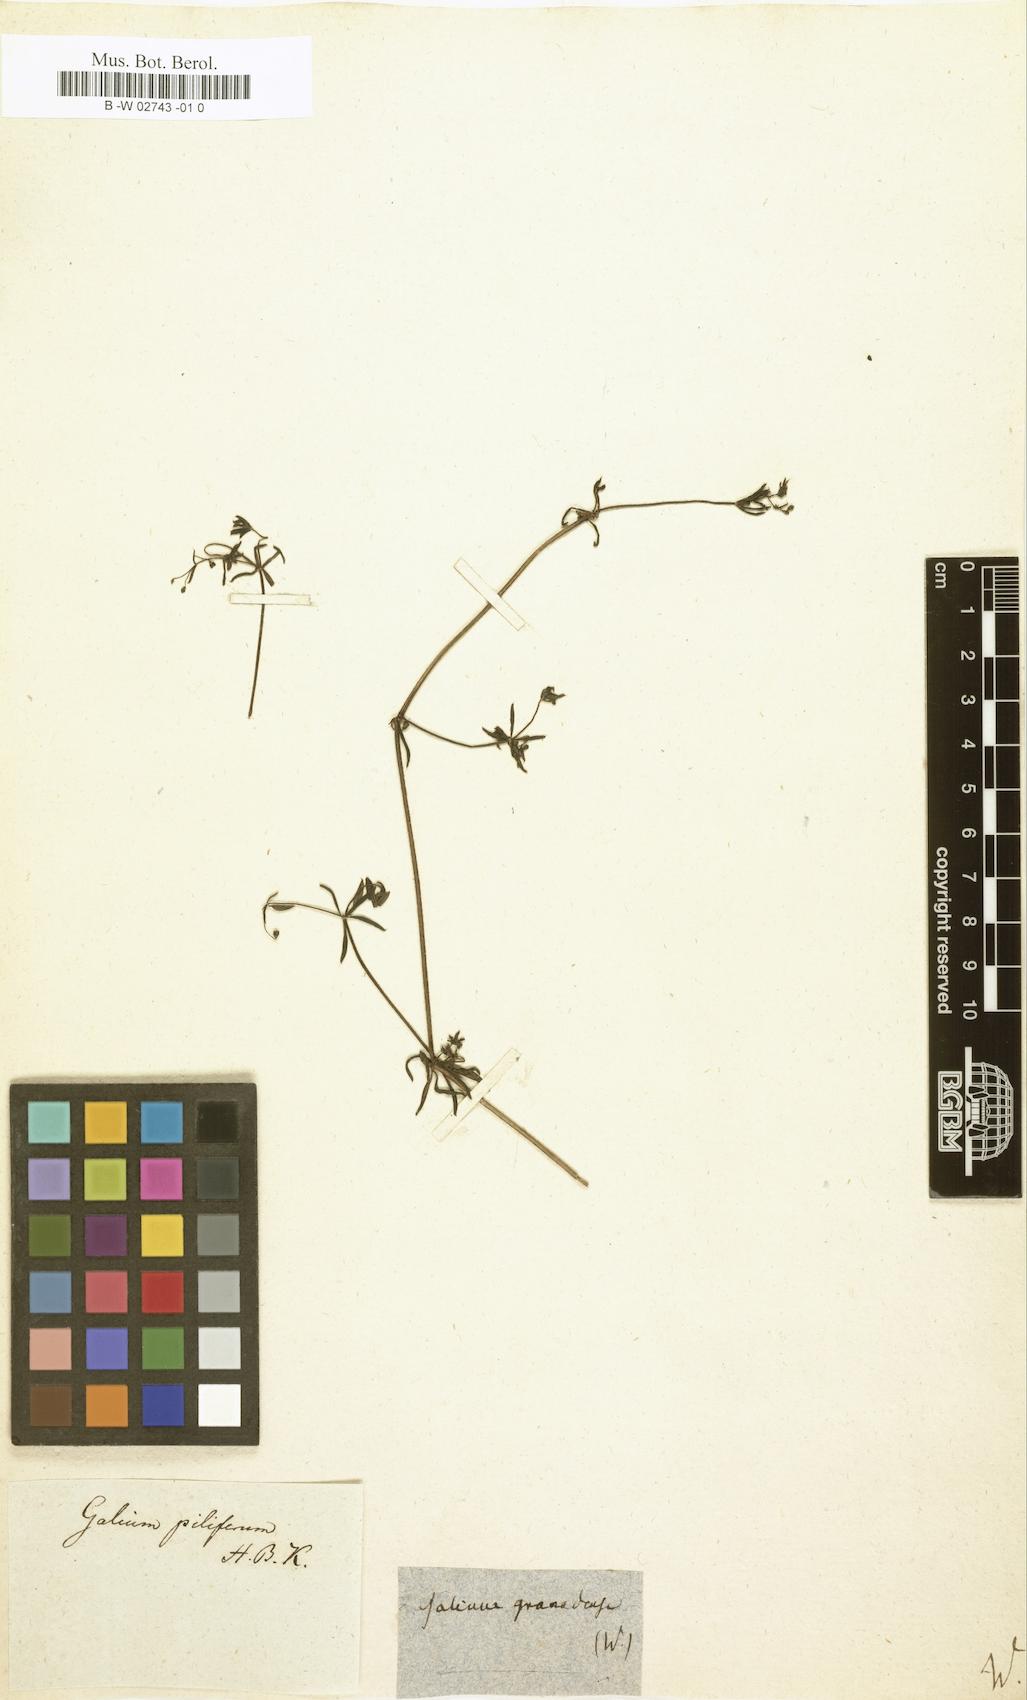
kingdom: Plantae
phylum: Tracheophyta
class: Magnoliopsida
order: Gentianales
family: Rubiaceae
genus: Galium
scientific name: Galium mexicanum
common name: Mexican bedstraw
